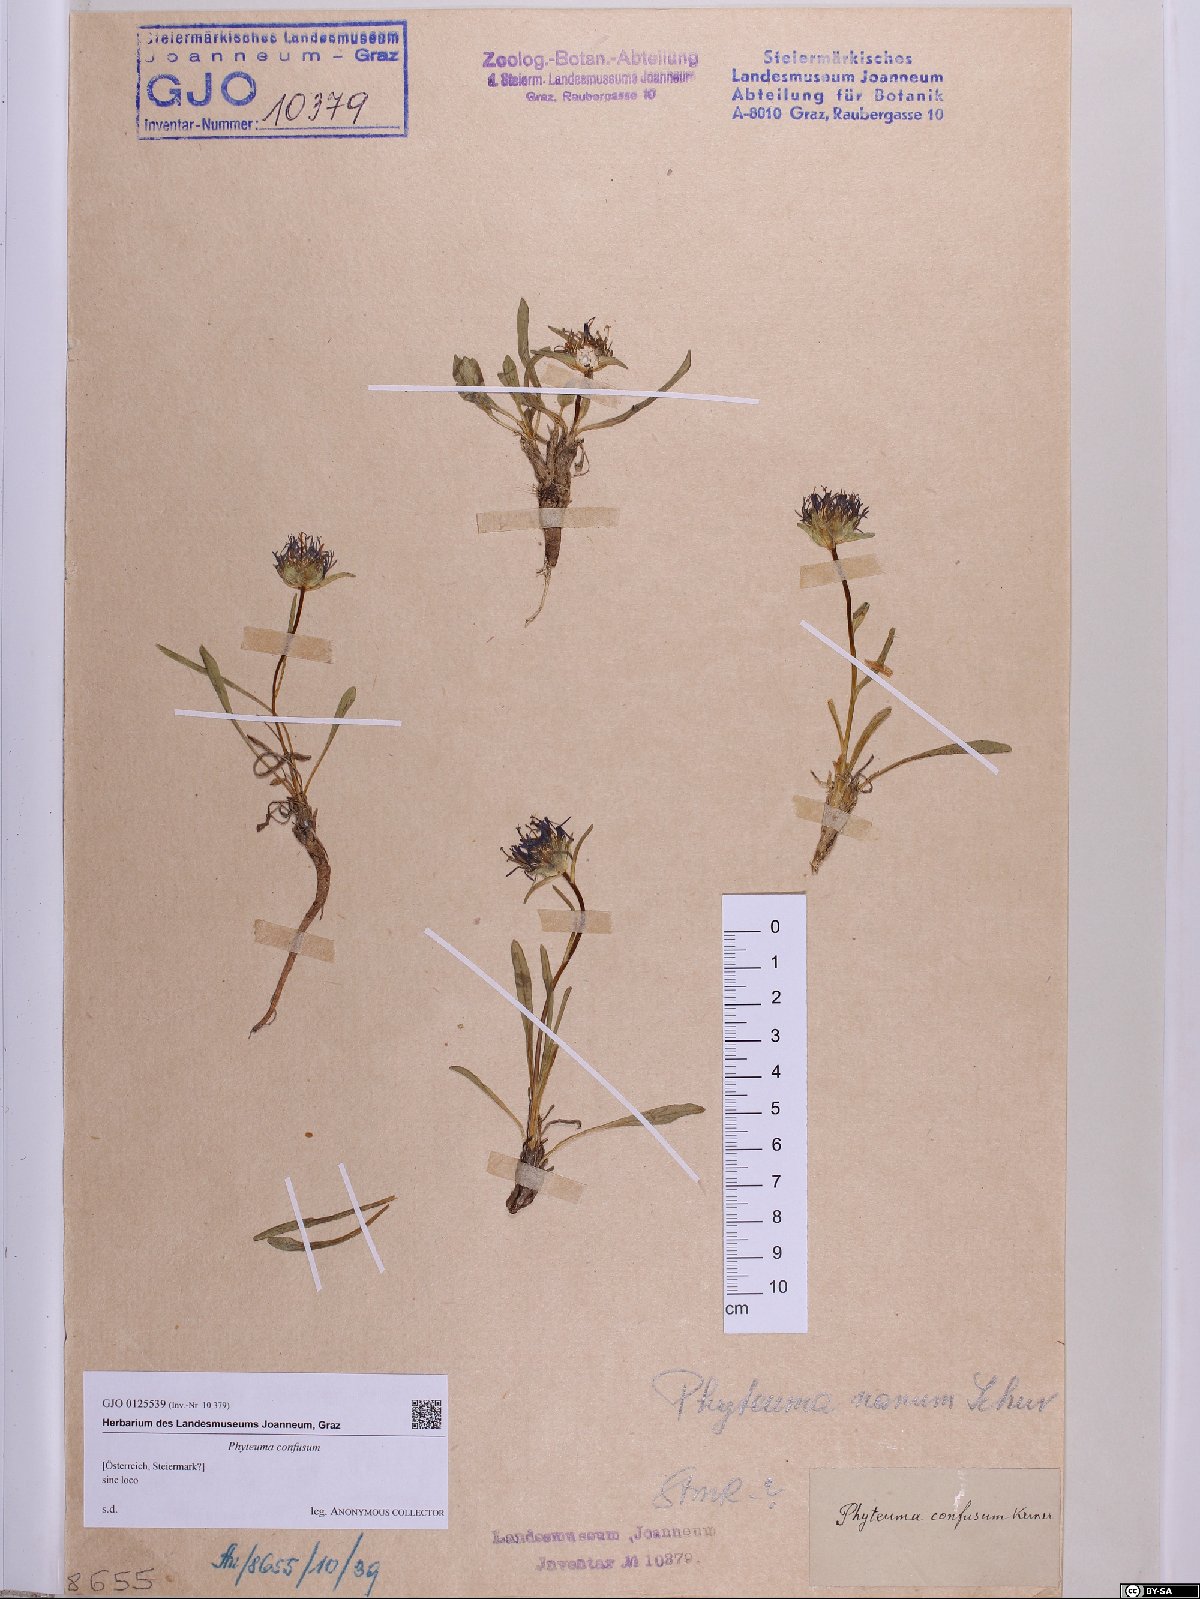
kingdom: Plantae
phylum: Tracheophyta
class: Magnoliopsida
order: Asterales
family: Campanulaceae
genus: Phyteuma
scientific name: Phyteuma confusum
